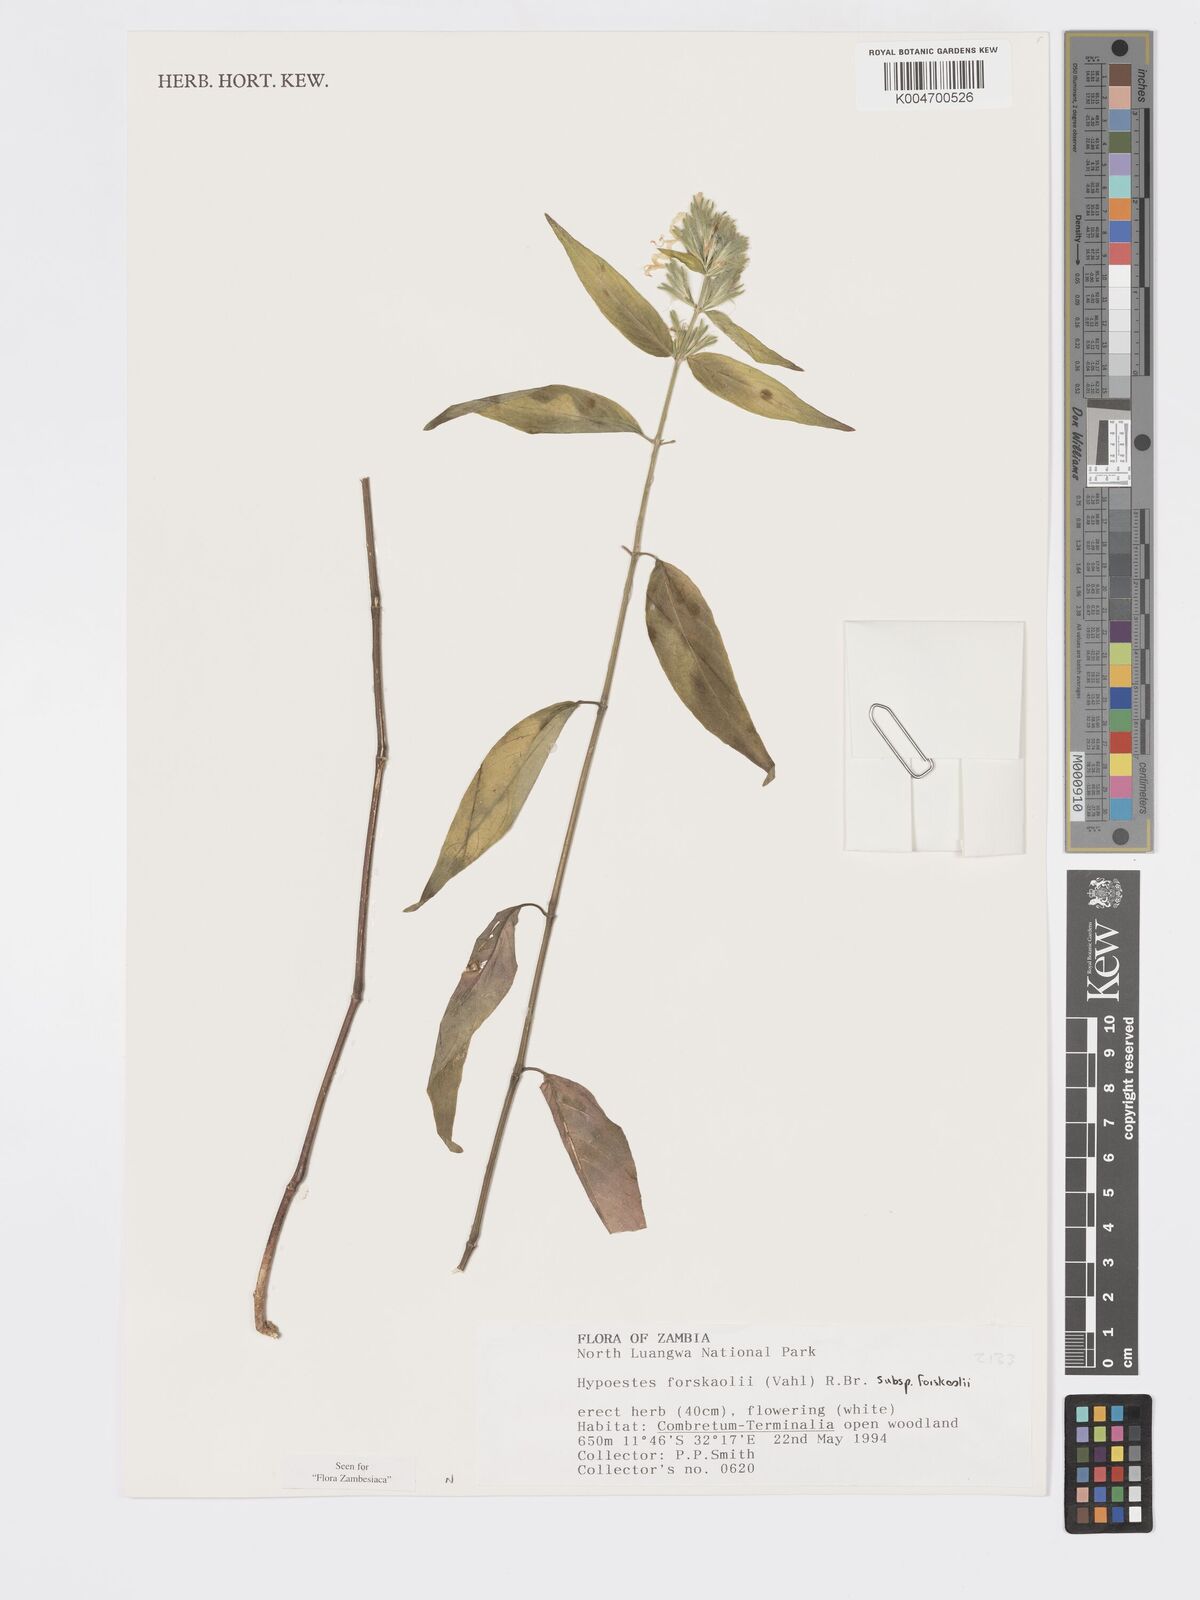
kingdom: Plantae
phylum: Tracheophyta
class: Magnoliopsida
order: Lamiales
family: Acanthaceae
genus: Hypoestes
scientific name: Hypoestes forskaolii
